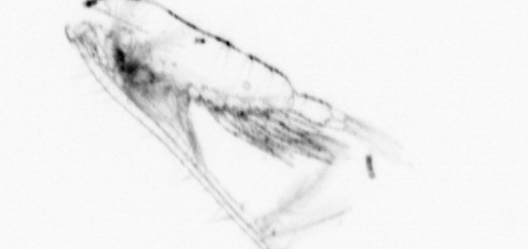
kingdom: Animalia
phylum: Arthropoda
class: Copepoda
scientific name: Copepoda
